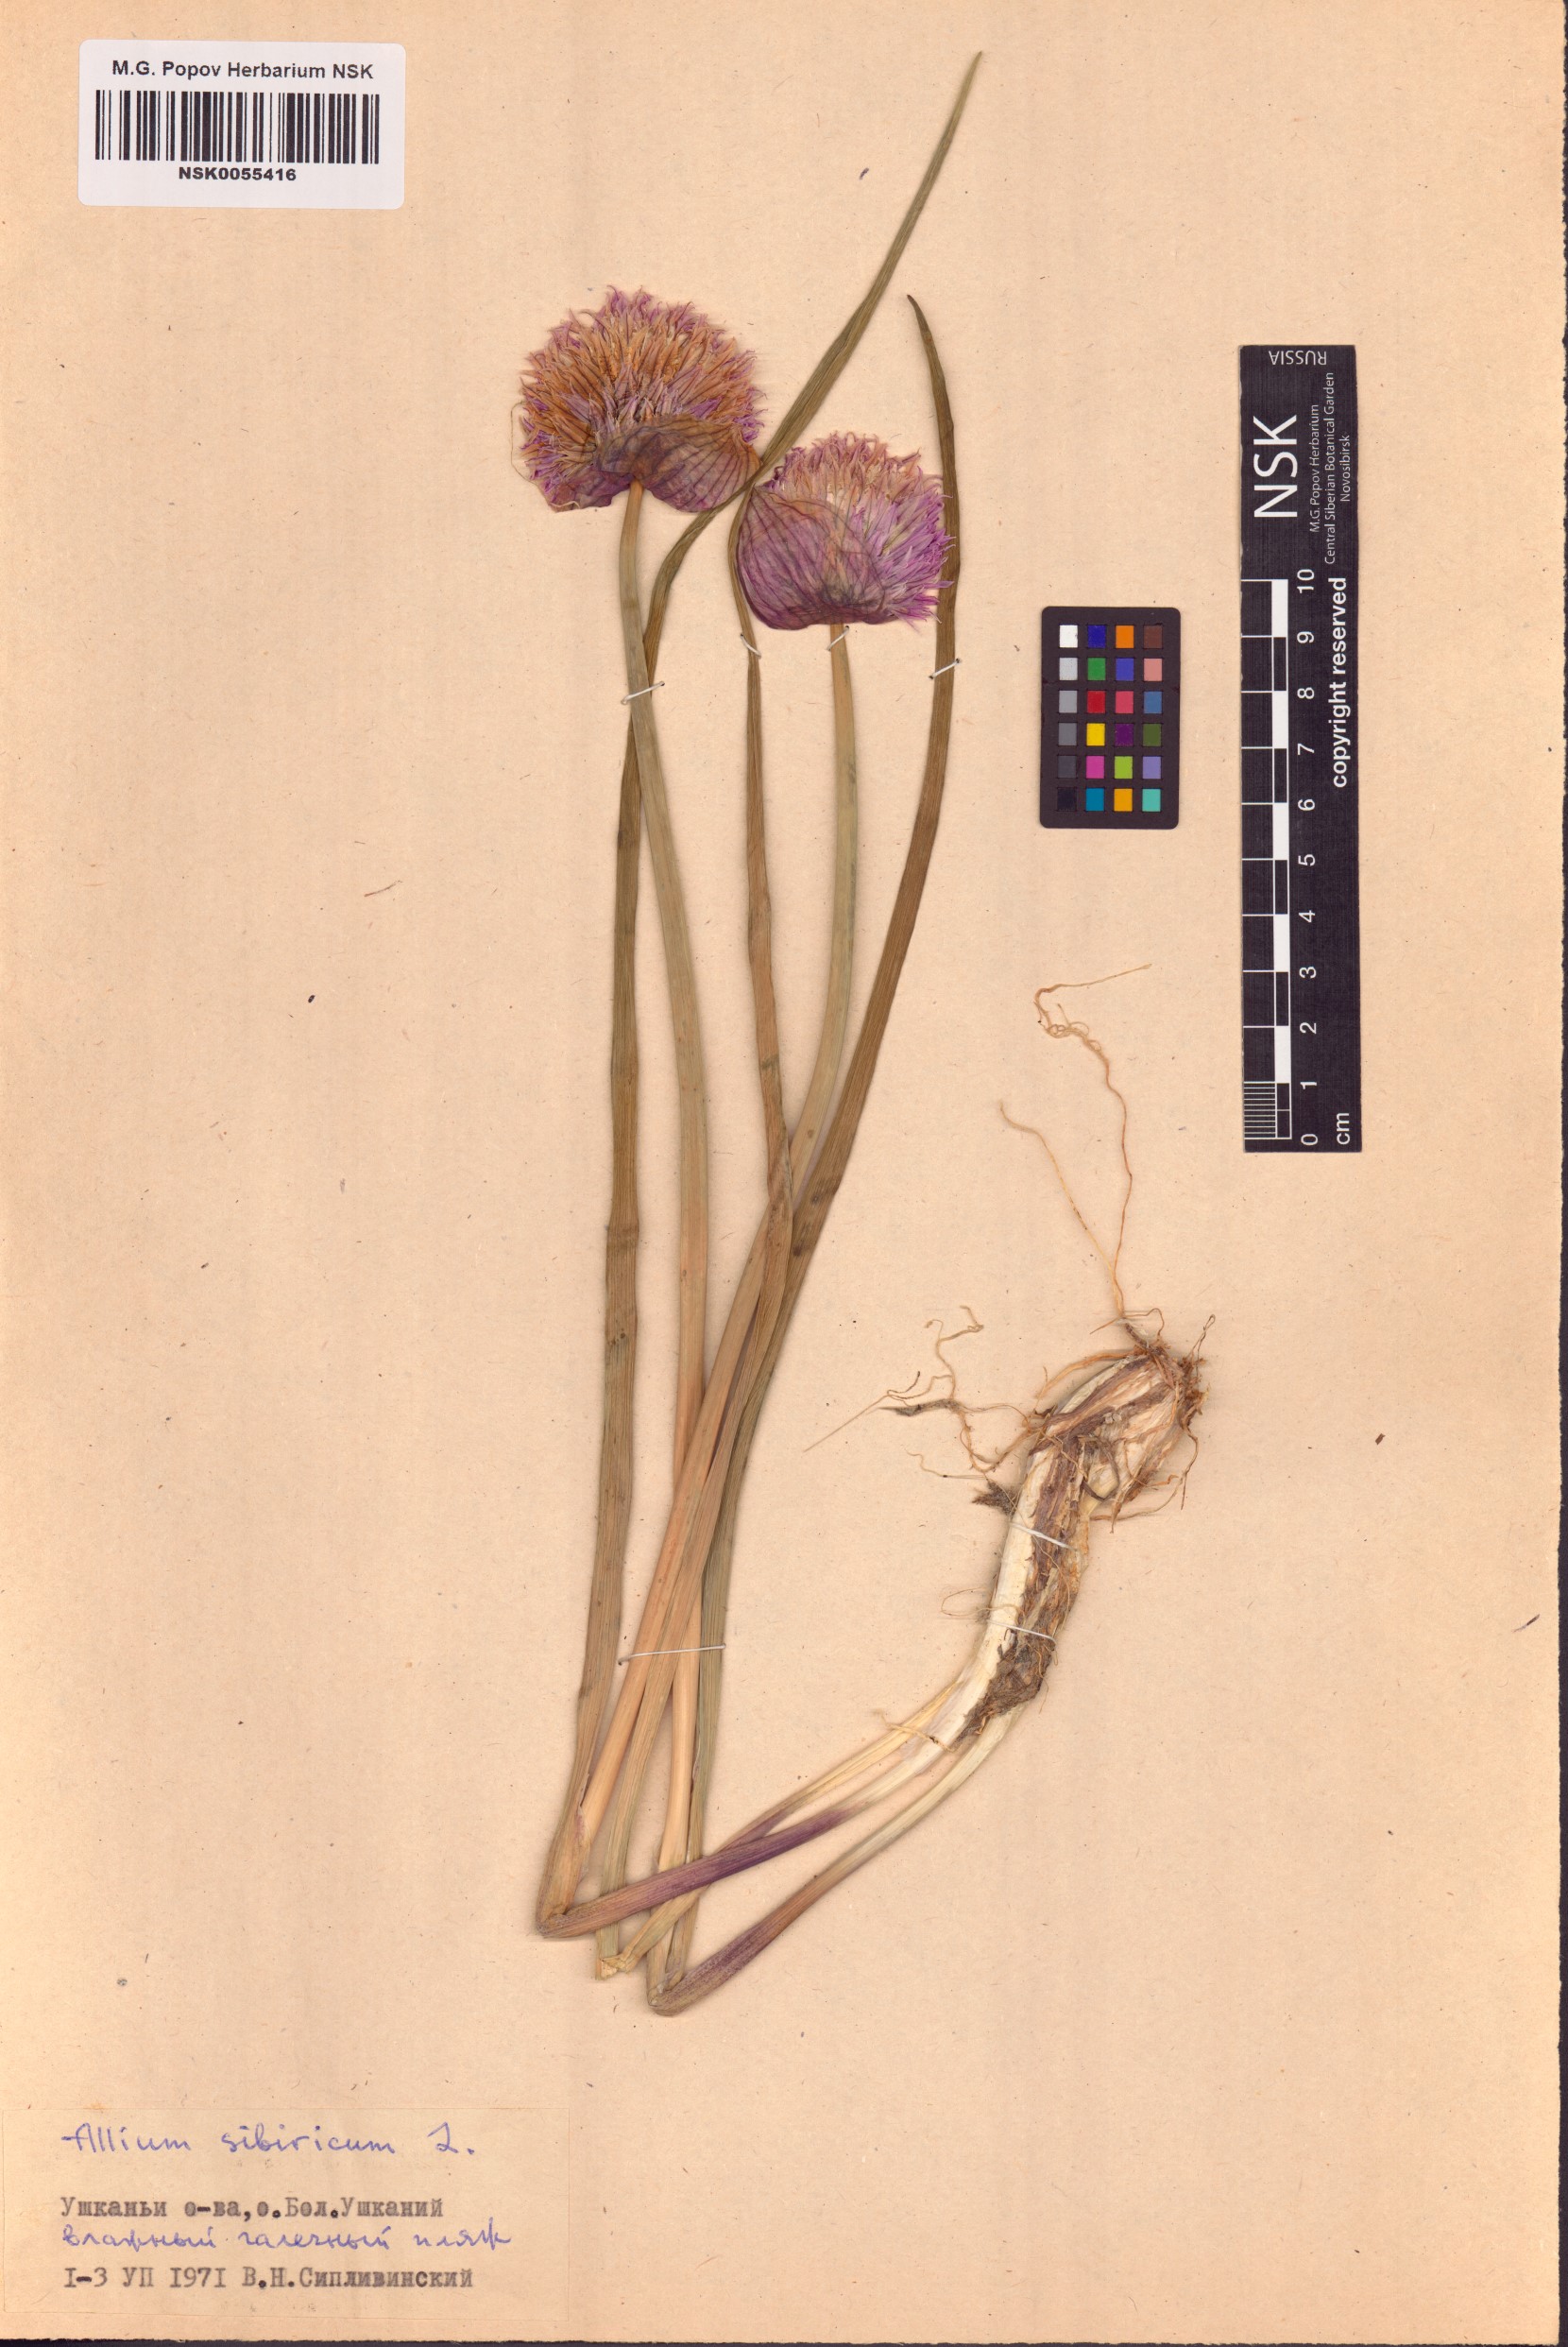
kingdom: Plantae
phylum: Tracheophyta
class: Liliopsida
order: Asparagales
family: Amaryllidaceae
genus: Allium
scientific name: Allium schoenoprasum
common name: Chives
